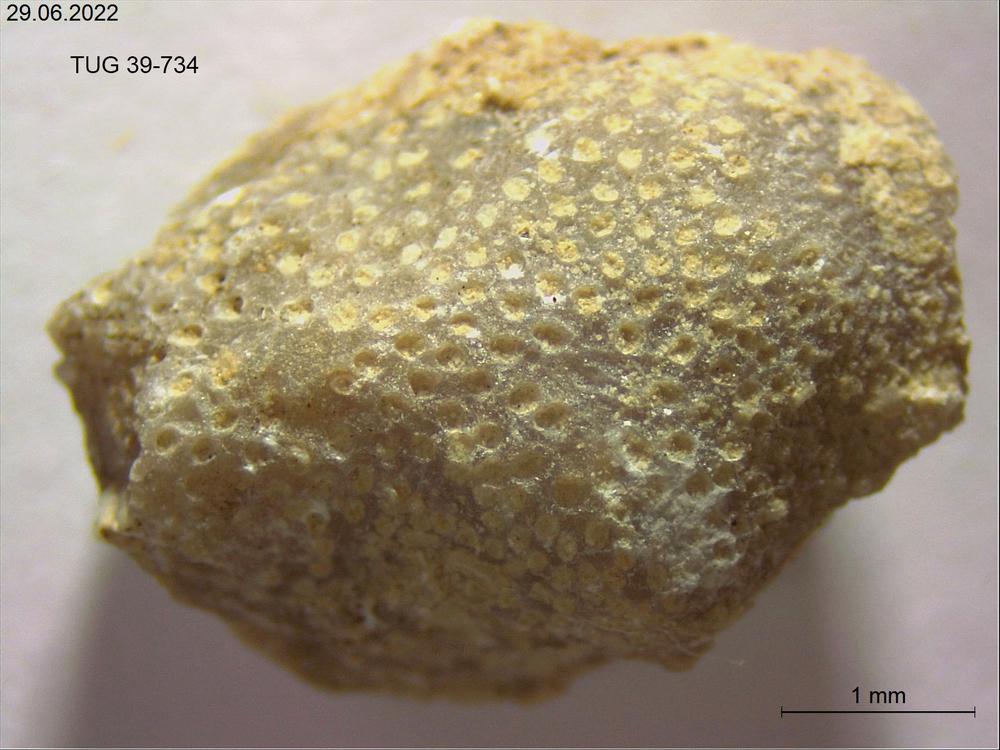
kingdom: Animalia
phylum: Bryozoa
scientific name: Bryozoa
